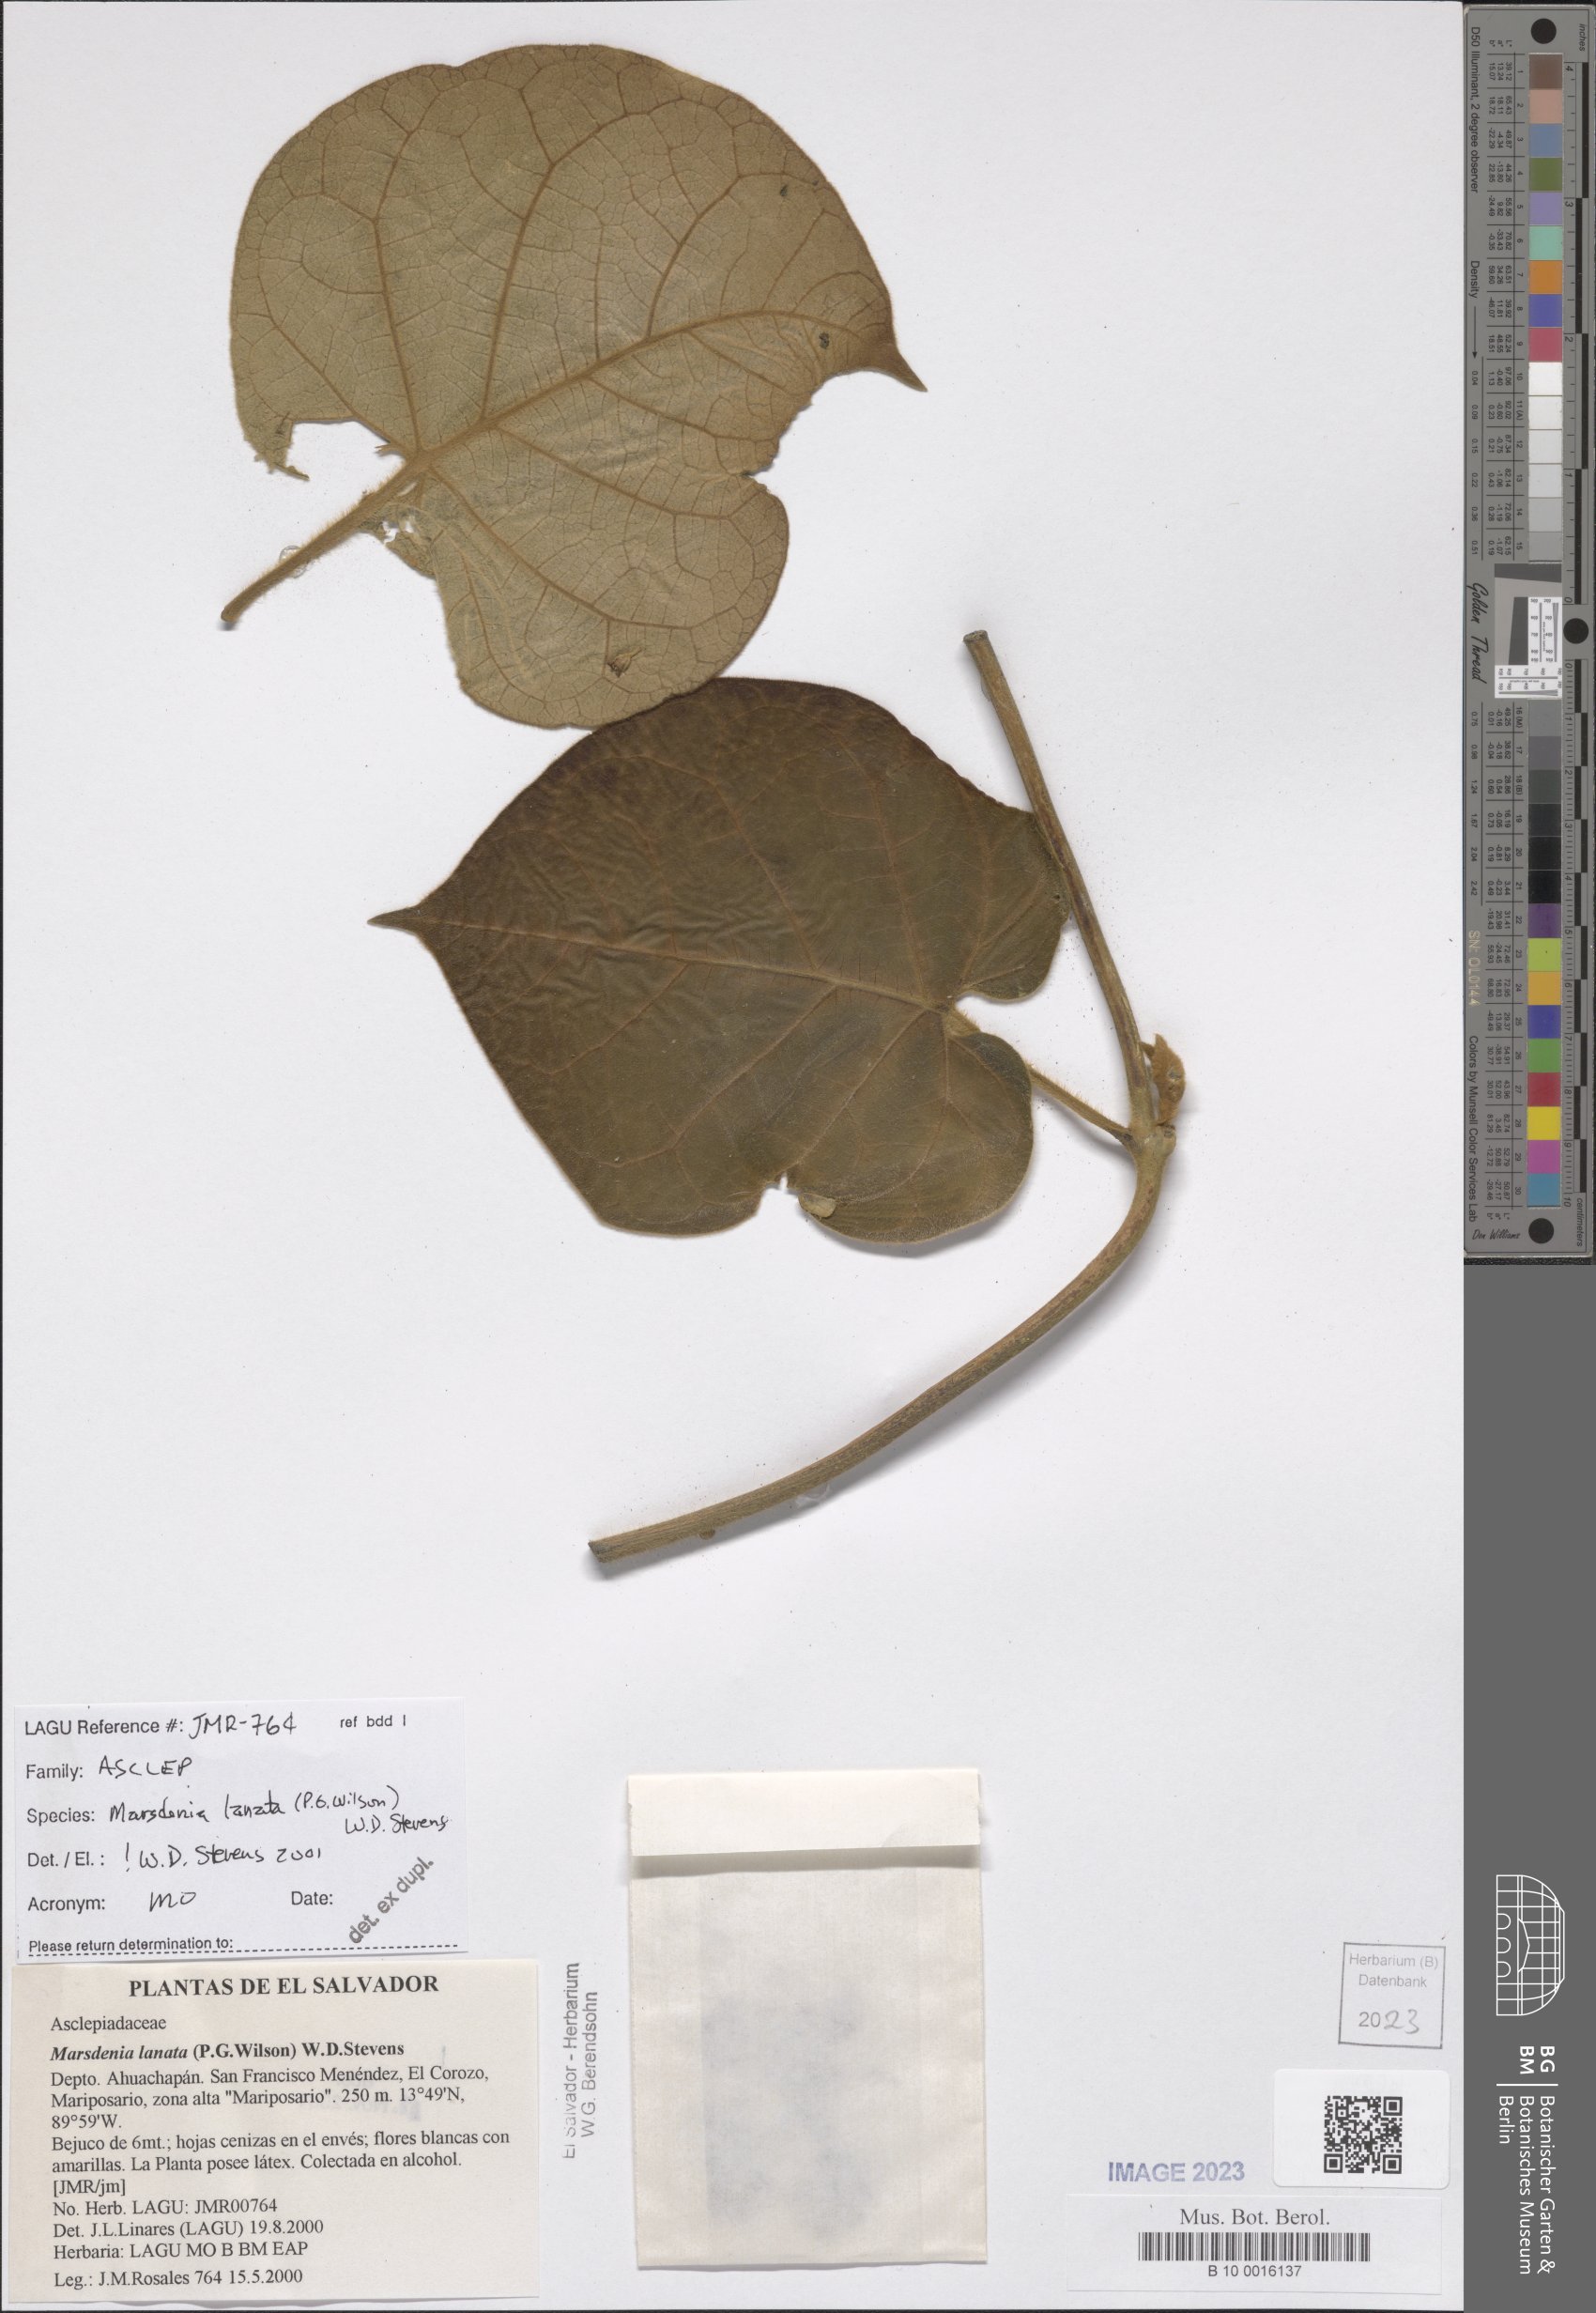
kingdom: Plantae
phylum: Tracheophyta
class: Magnoliopsida
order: Gentianales
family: Apocynaceae
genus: Ruehssia
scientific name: Ruehssia lanata
